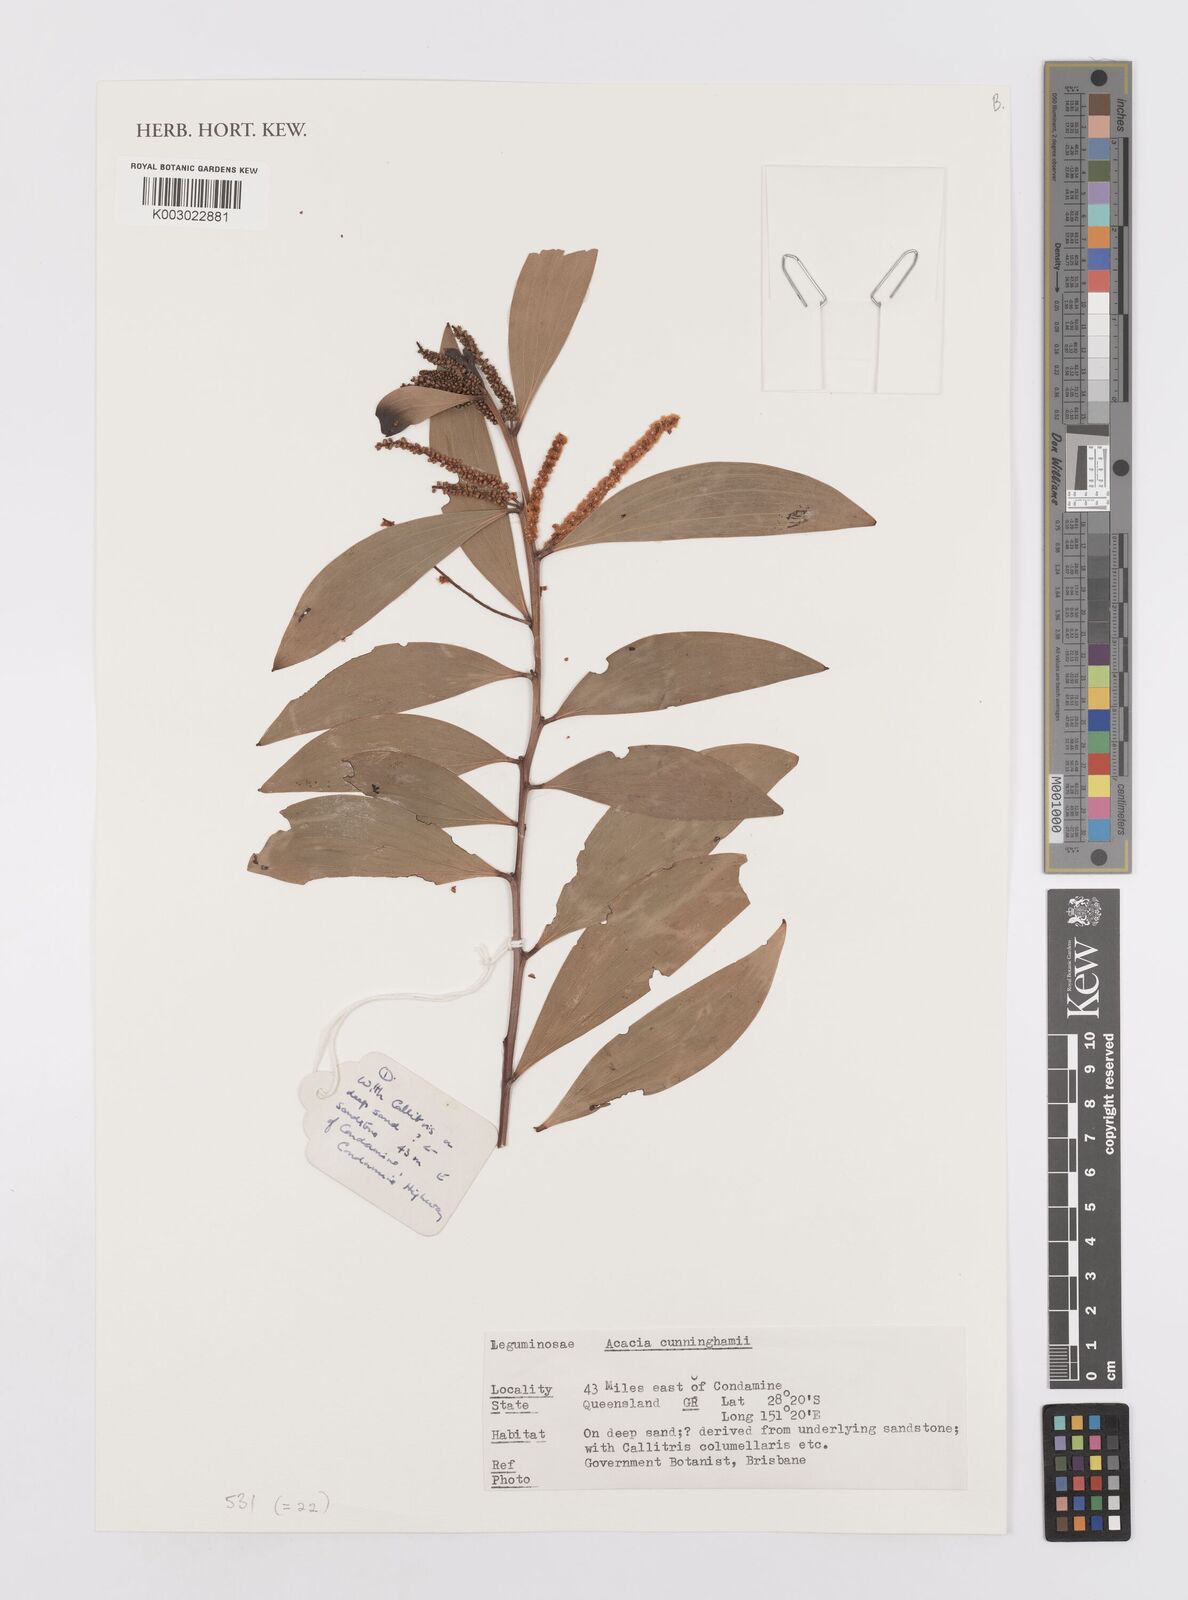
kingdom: Plantae
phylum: Tracheophyta
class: Magnoliopsida
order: Fabales
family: Fabaceae
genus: Acacia
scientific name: Acacia longispicata
